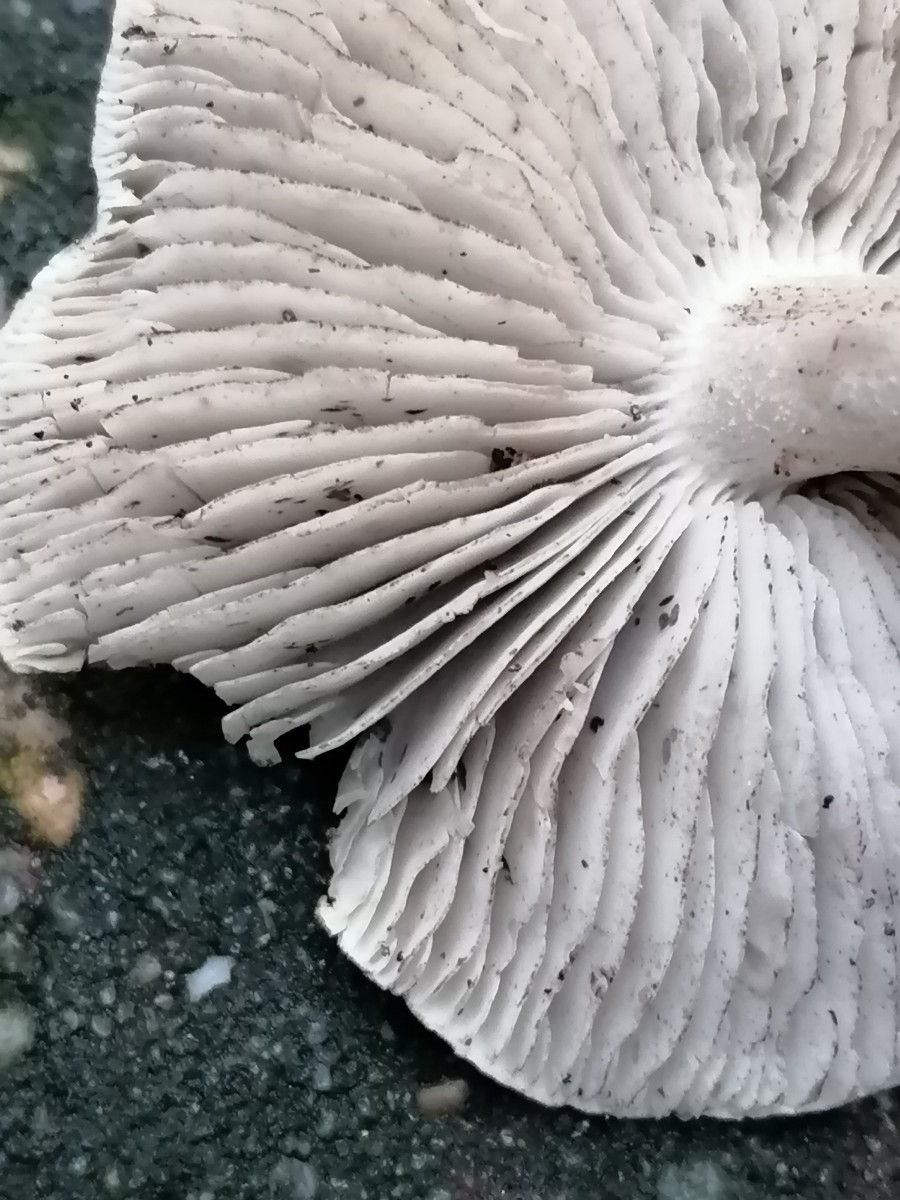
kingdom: Fungi
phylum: Basidiomycota
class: Agaricomycetes
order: Agaricales
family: Tricholomataceae
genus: Tricholoma
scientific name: Tricholoma sciodes
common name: stribet ridderhat
